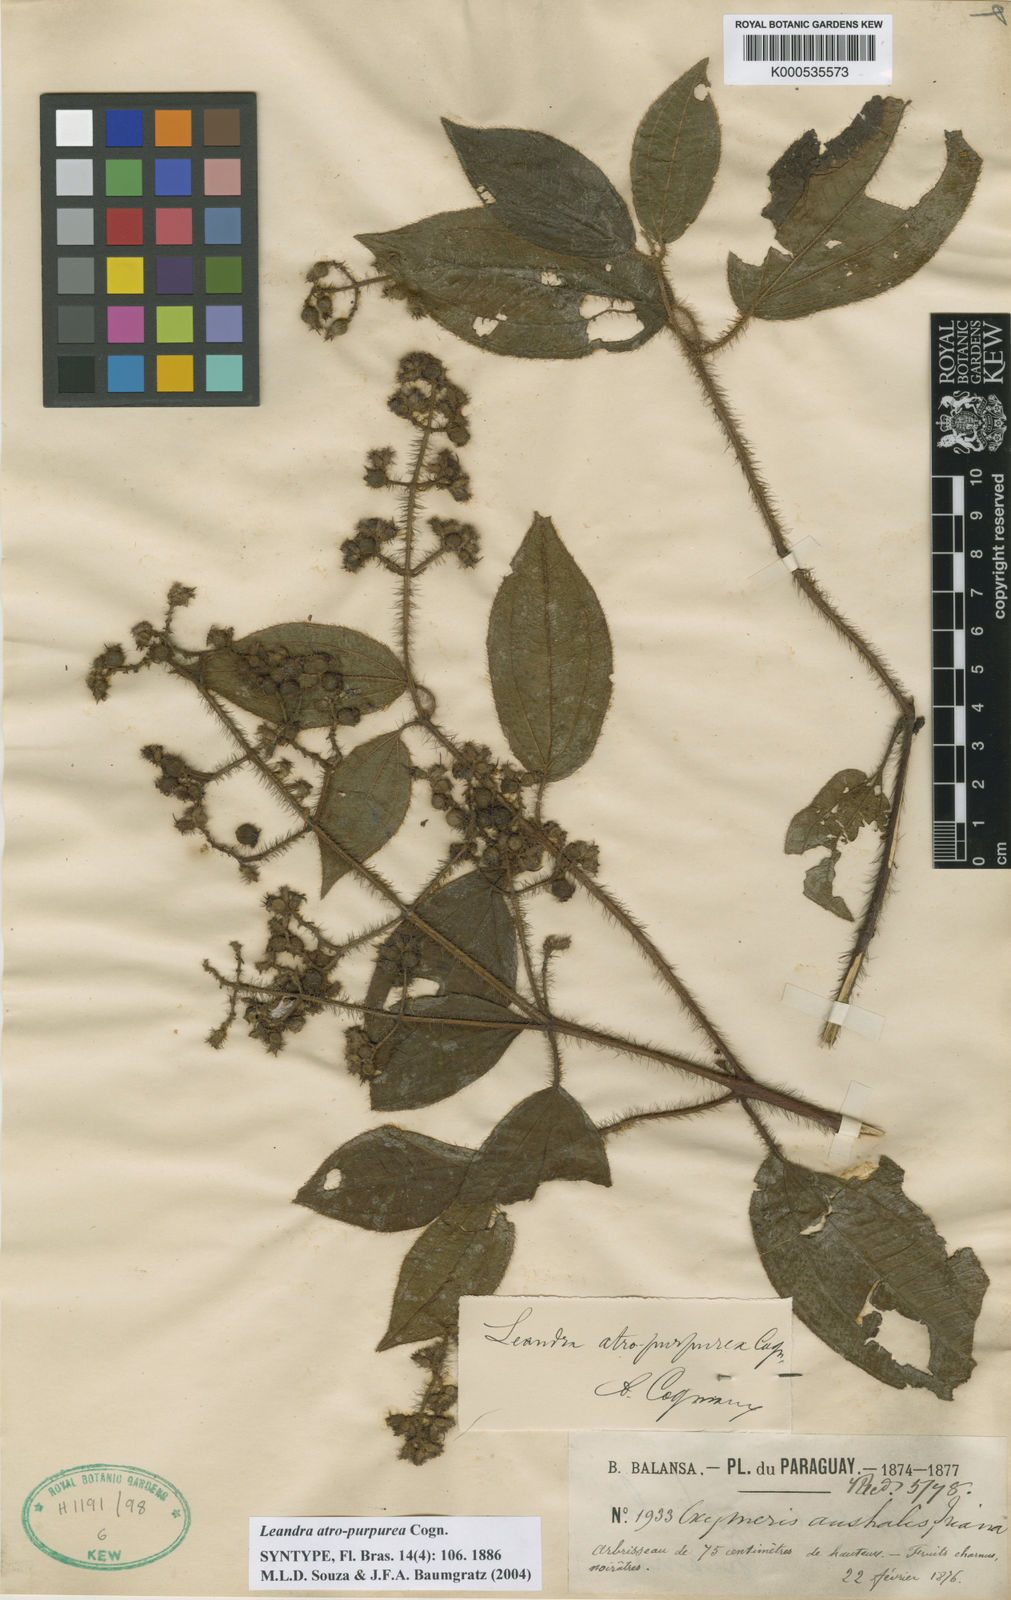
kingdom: Plantae
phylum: Tracheophyta
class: Magnoliopsida
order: Myrtales
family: Melastomataceae
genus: Miconia
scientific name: Miconia australis
